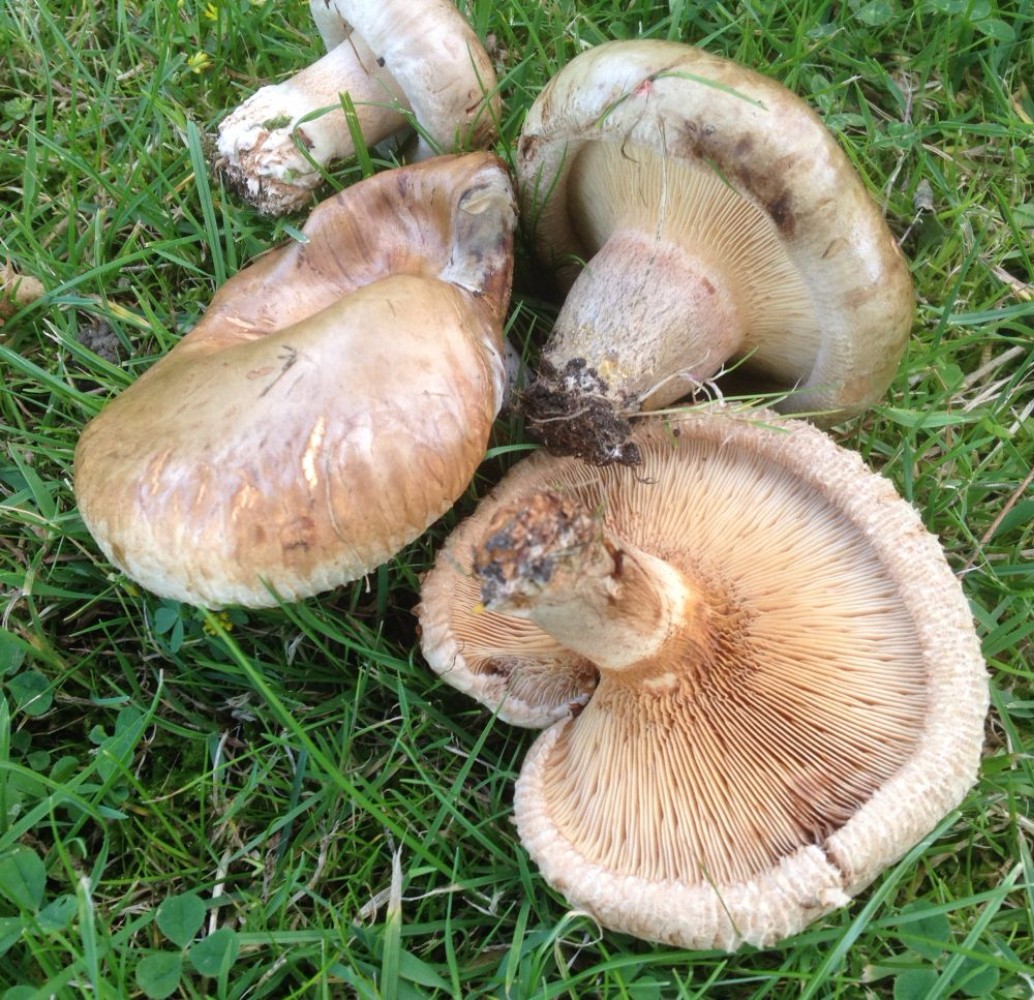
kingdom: Fungi
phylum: Basidiomycota
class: Agaricomycetes
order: Boletales
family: Paxillaceae
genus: Paxillus
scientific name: Paxillus obscurisporus
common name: mahognisporet netbladhat
